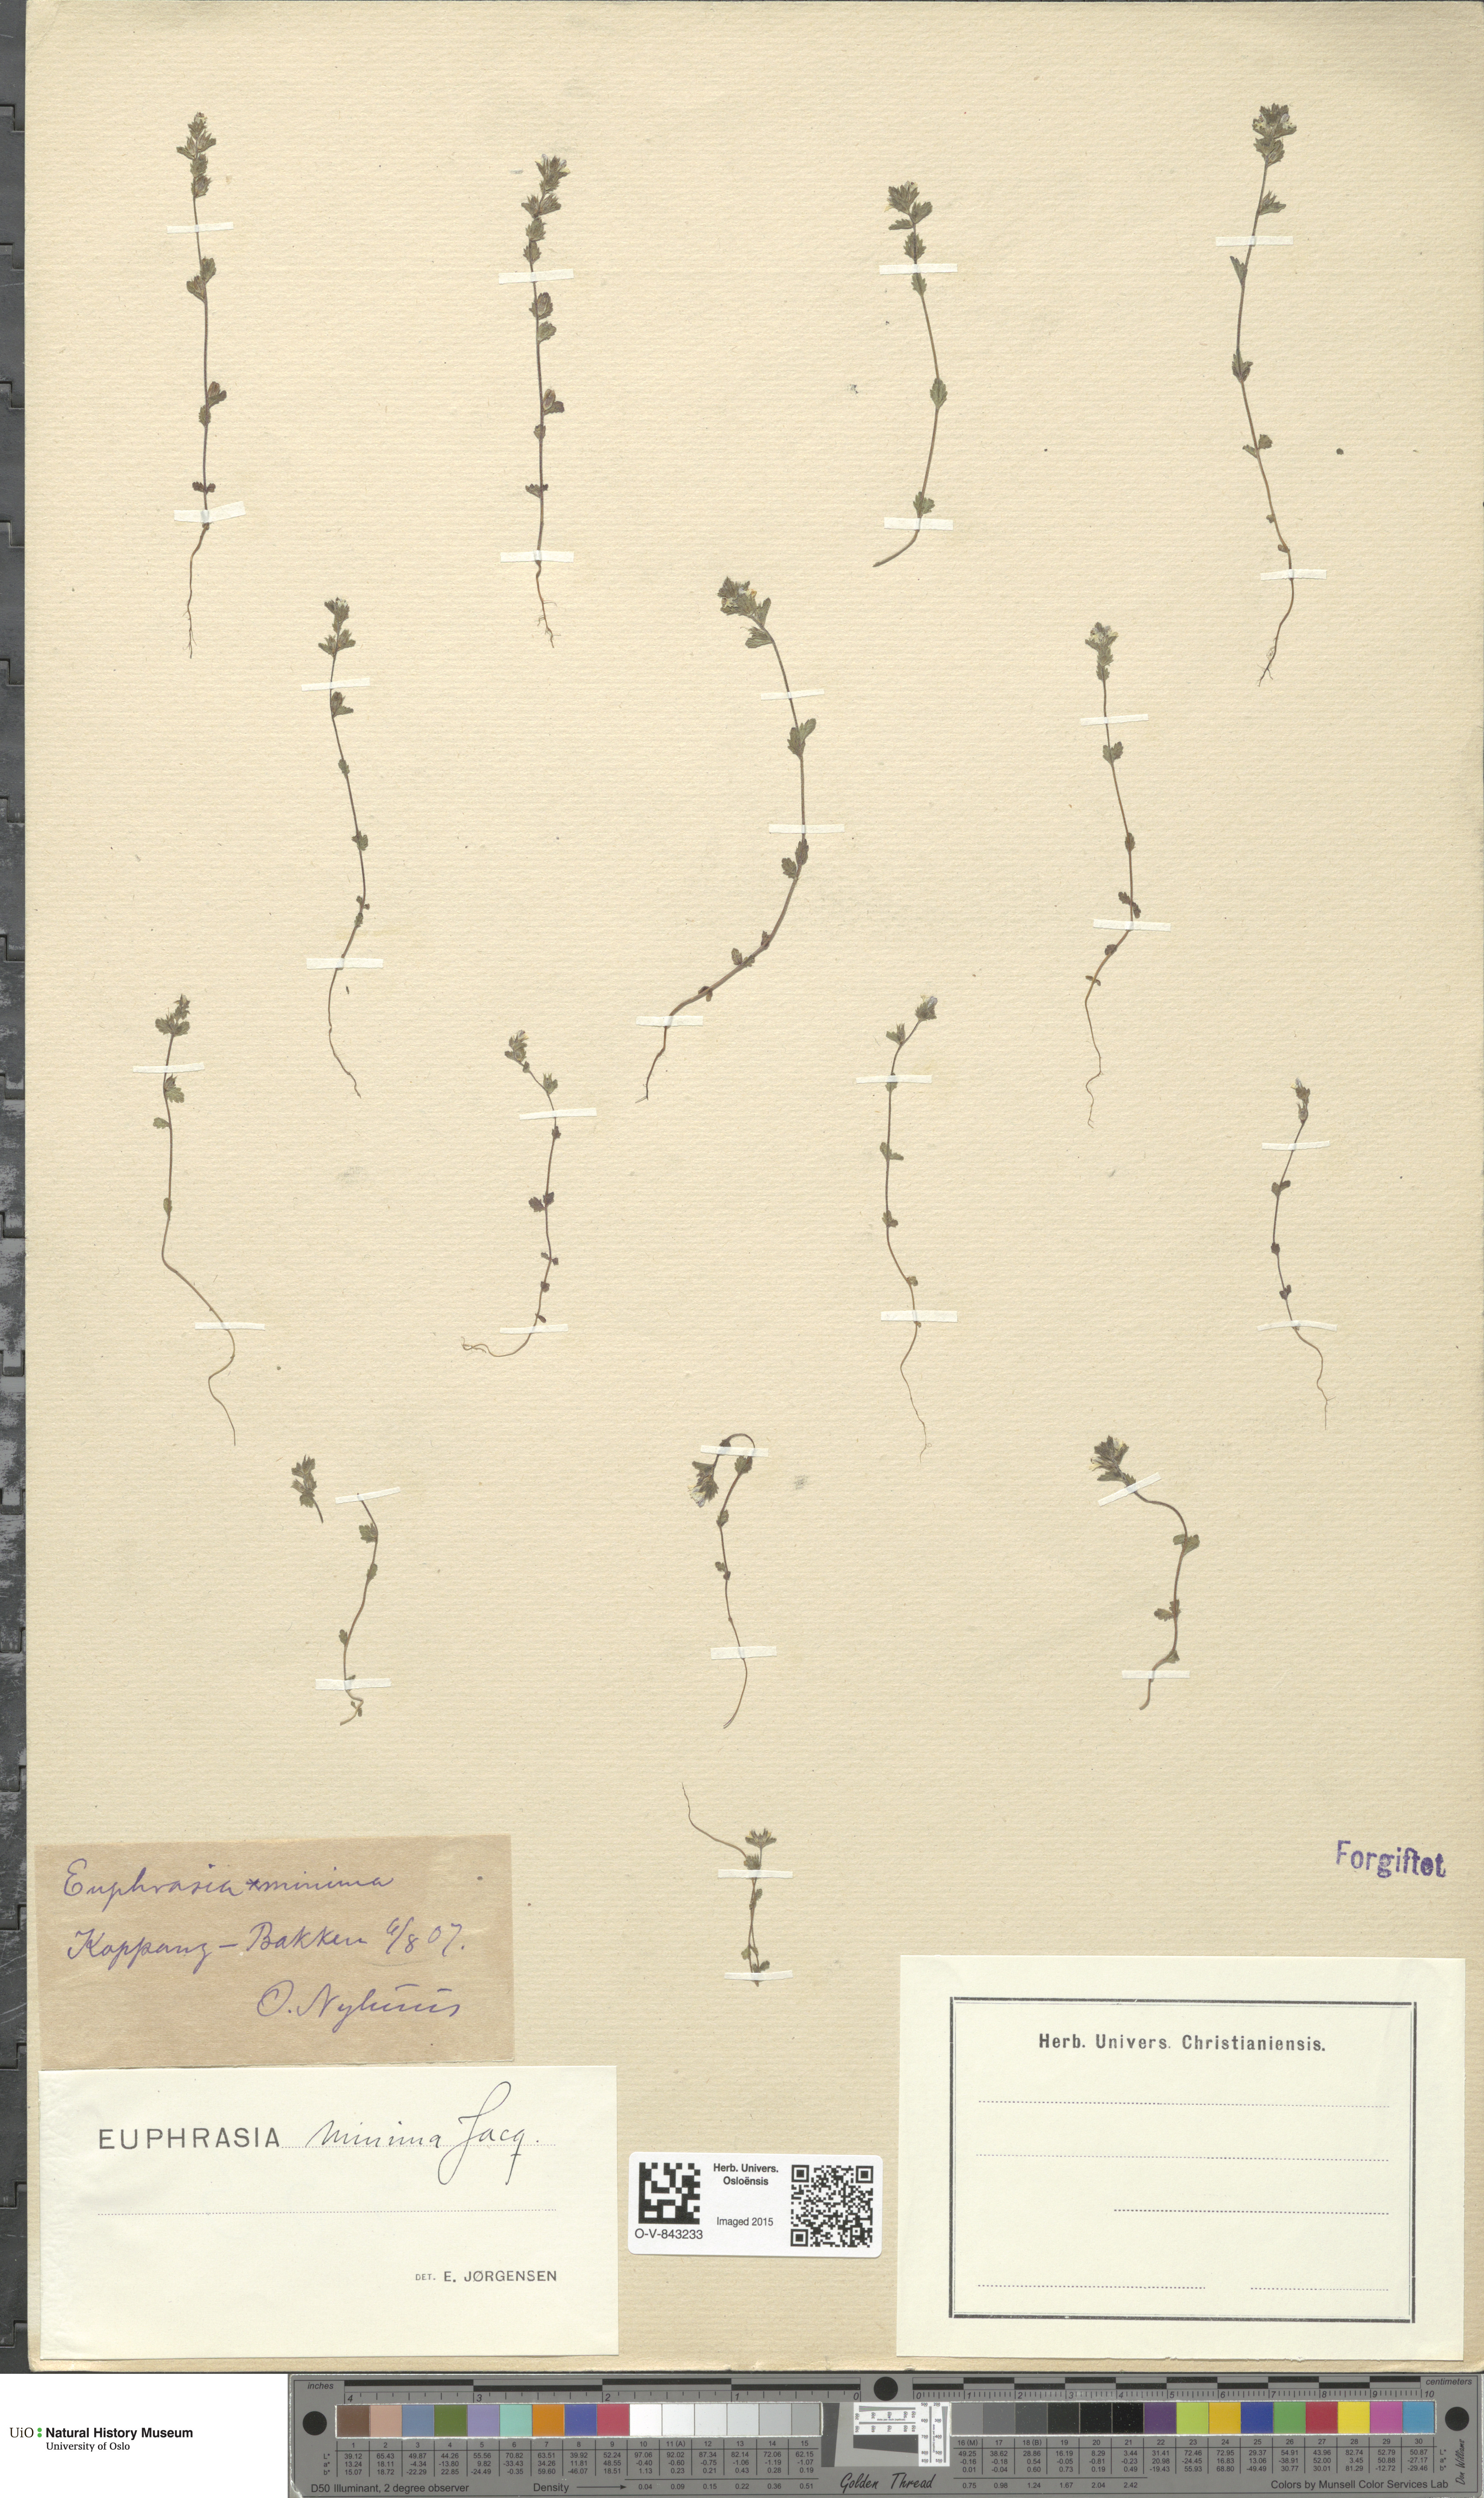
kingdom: Plantae
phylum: Tracheophyta
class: Magnoliopsida
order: Lamiales
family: Orobanchaceae
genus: Euphrasia
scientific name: Euphrasia wettsteinii
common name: Wettstein's eyebright
